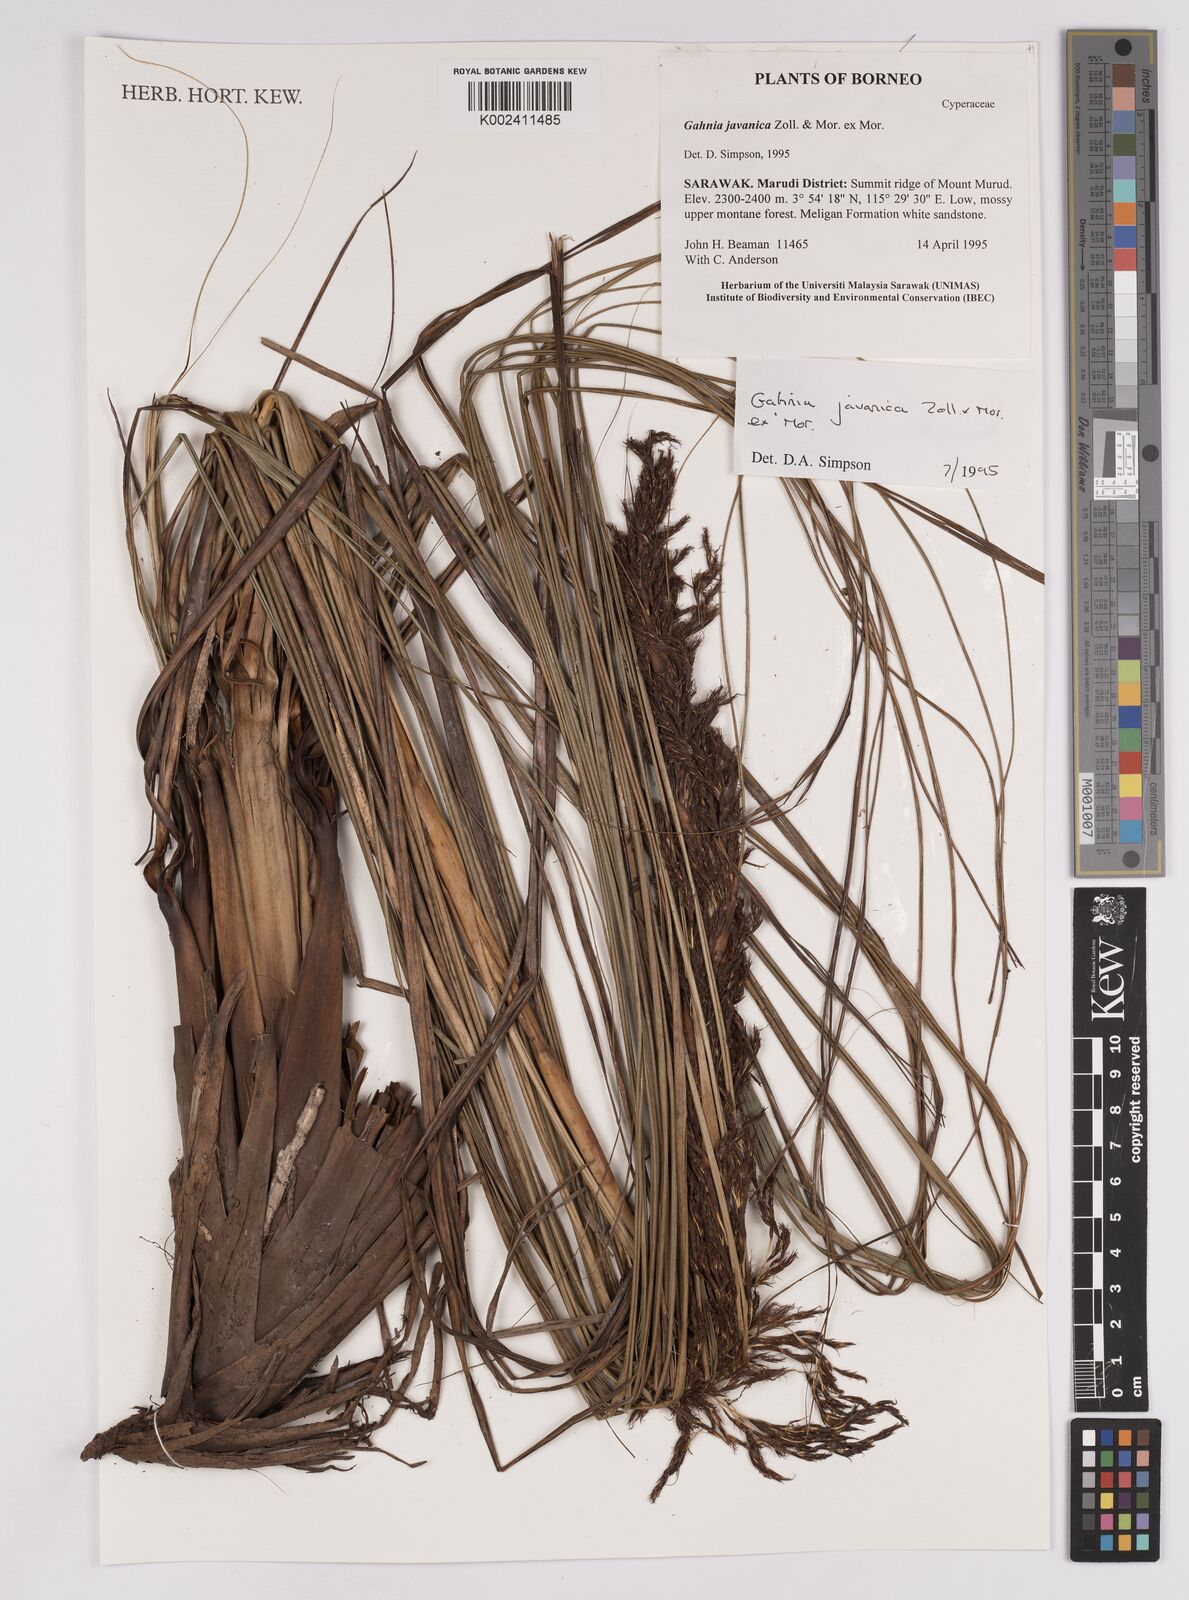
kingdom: Plantae
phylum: Tracheophyta
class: Liliopsida
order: Poales
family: Cyperaceae
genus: Gahnia
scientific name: Gahnia javanica
